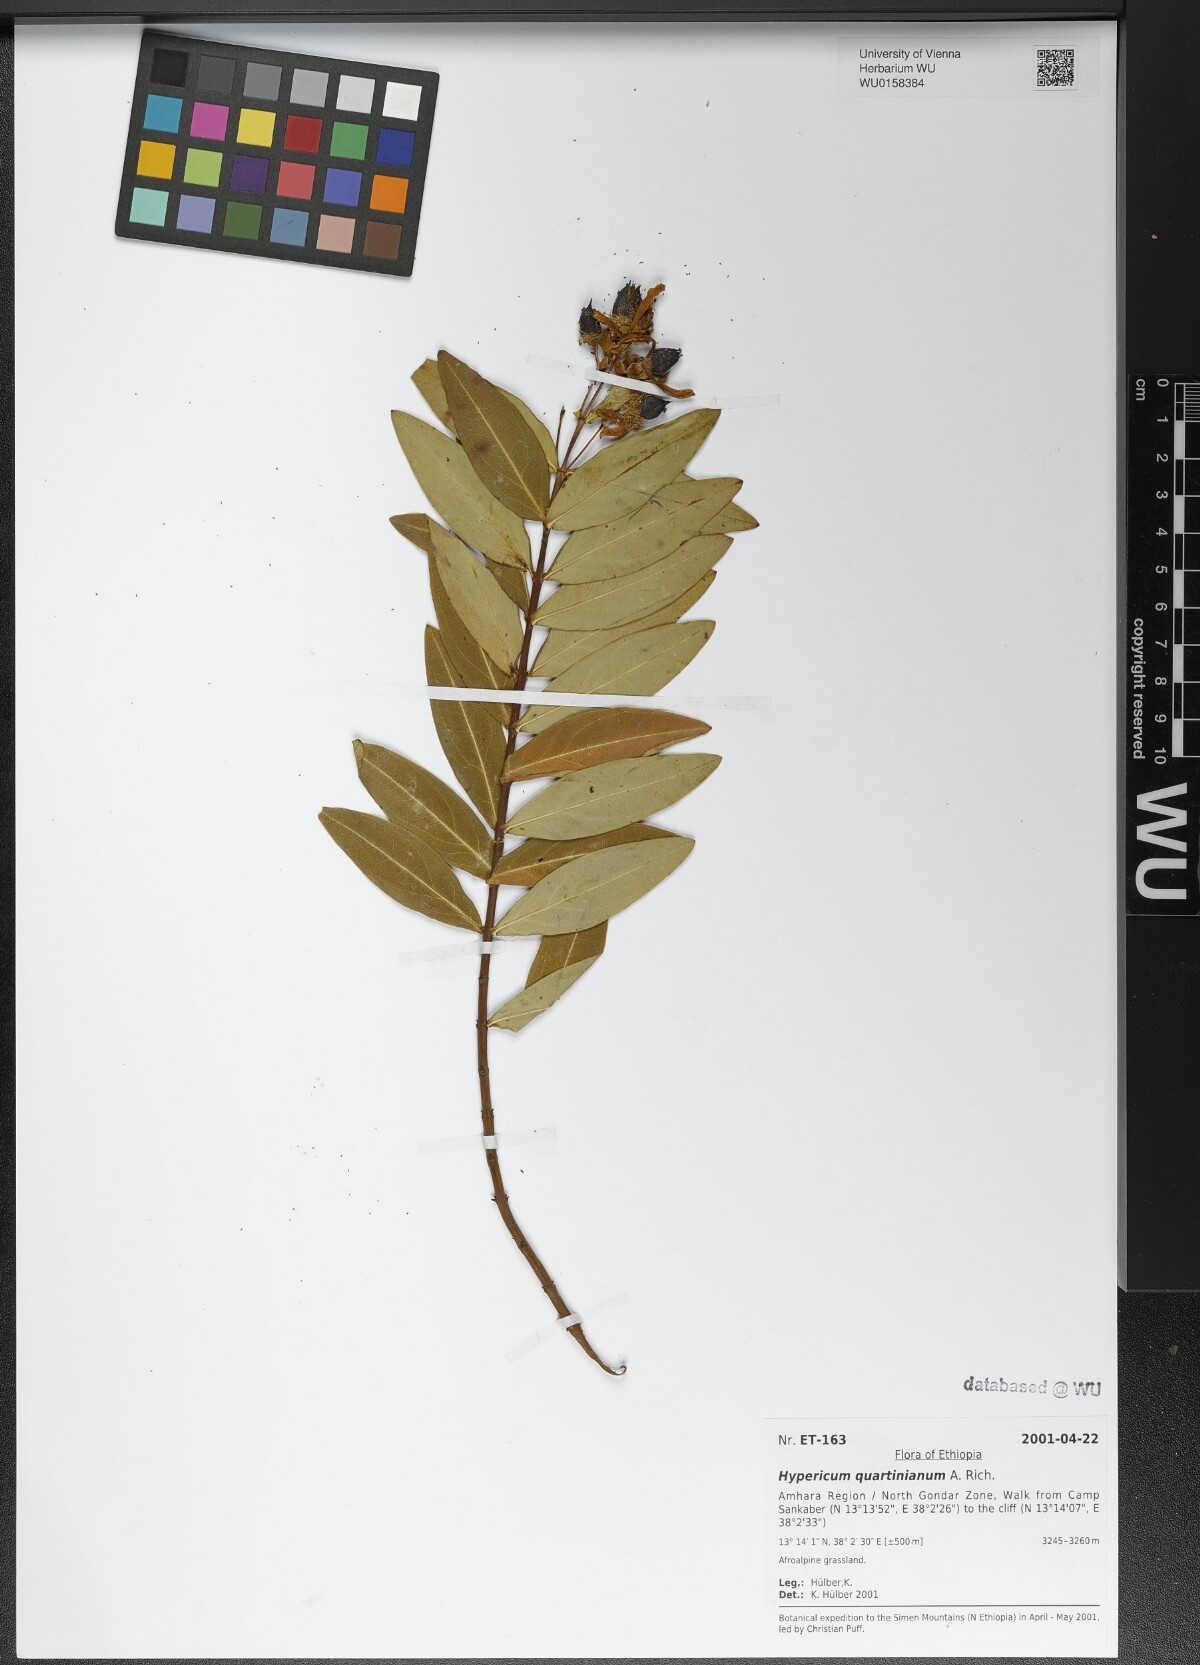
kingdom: Plantae
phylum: Tracheophyta
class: Magnoliopsida
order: Malpighiales
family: Hypericaceae
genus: Hypericum
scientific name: Hypericum quartinianum
